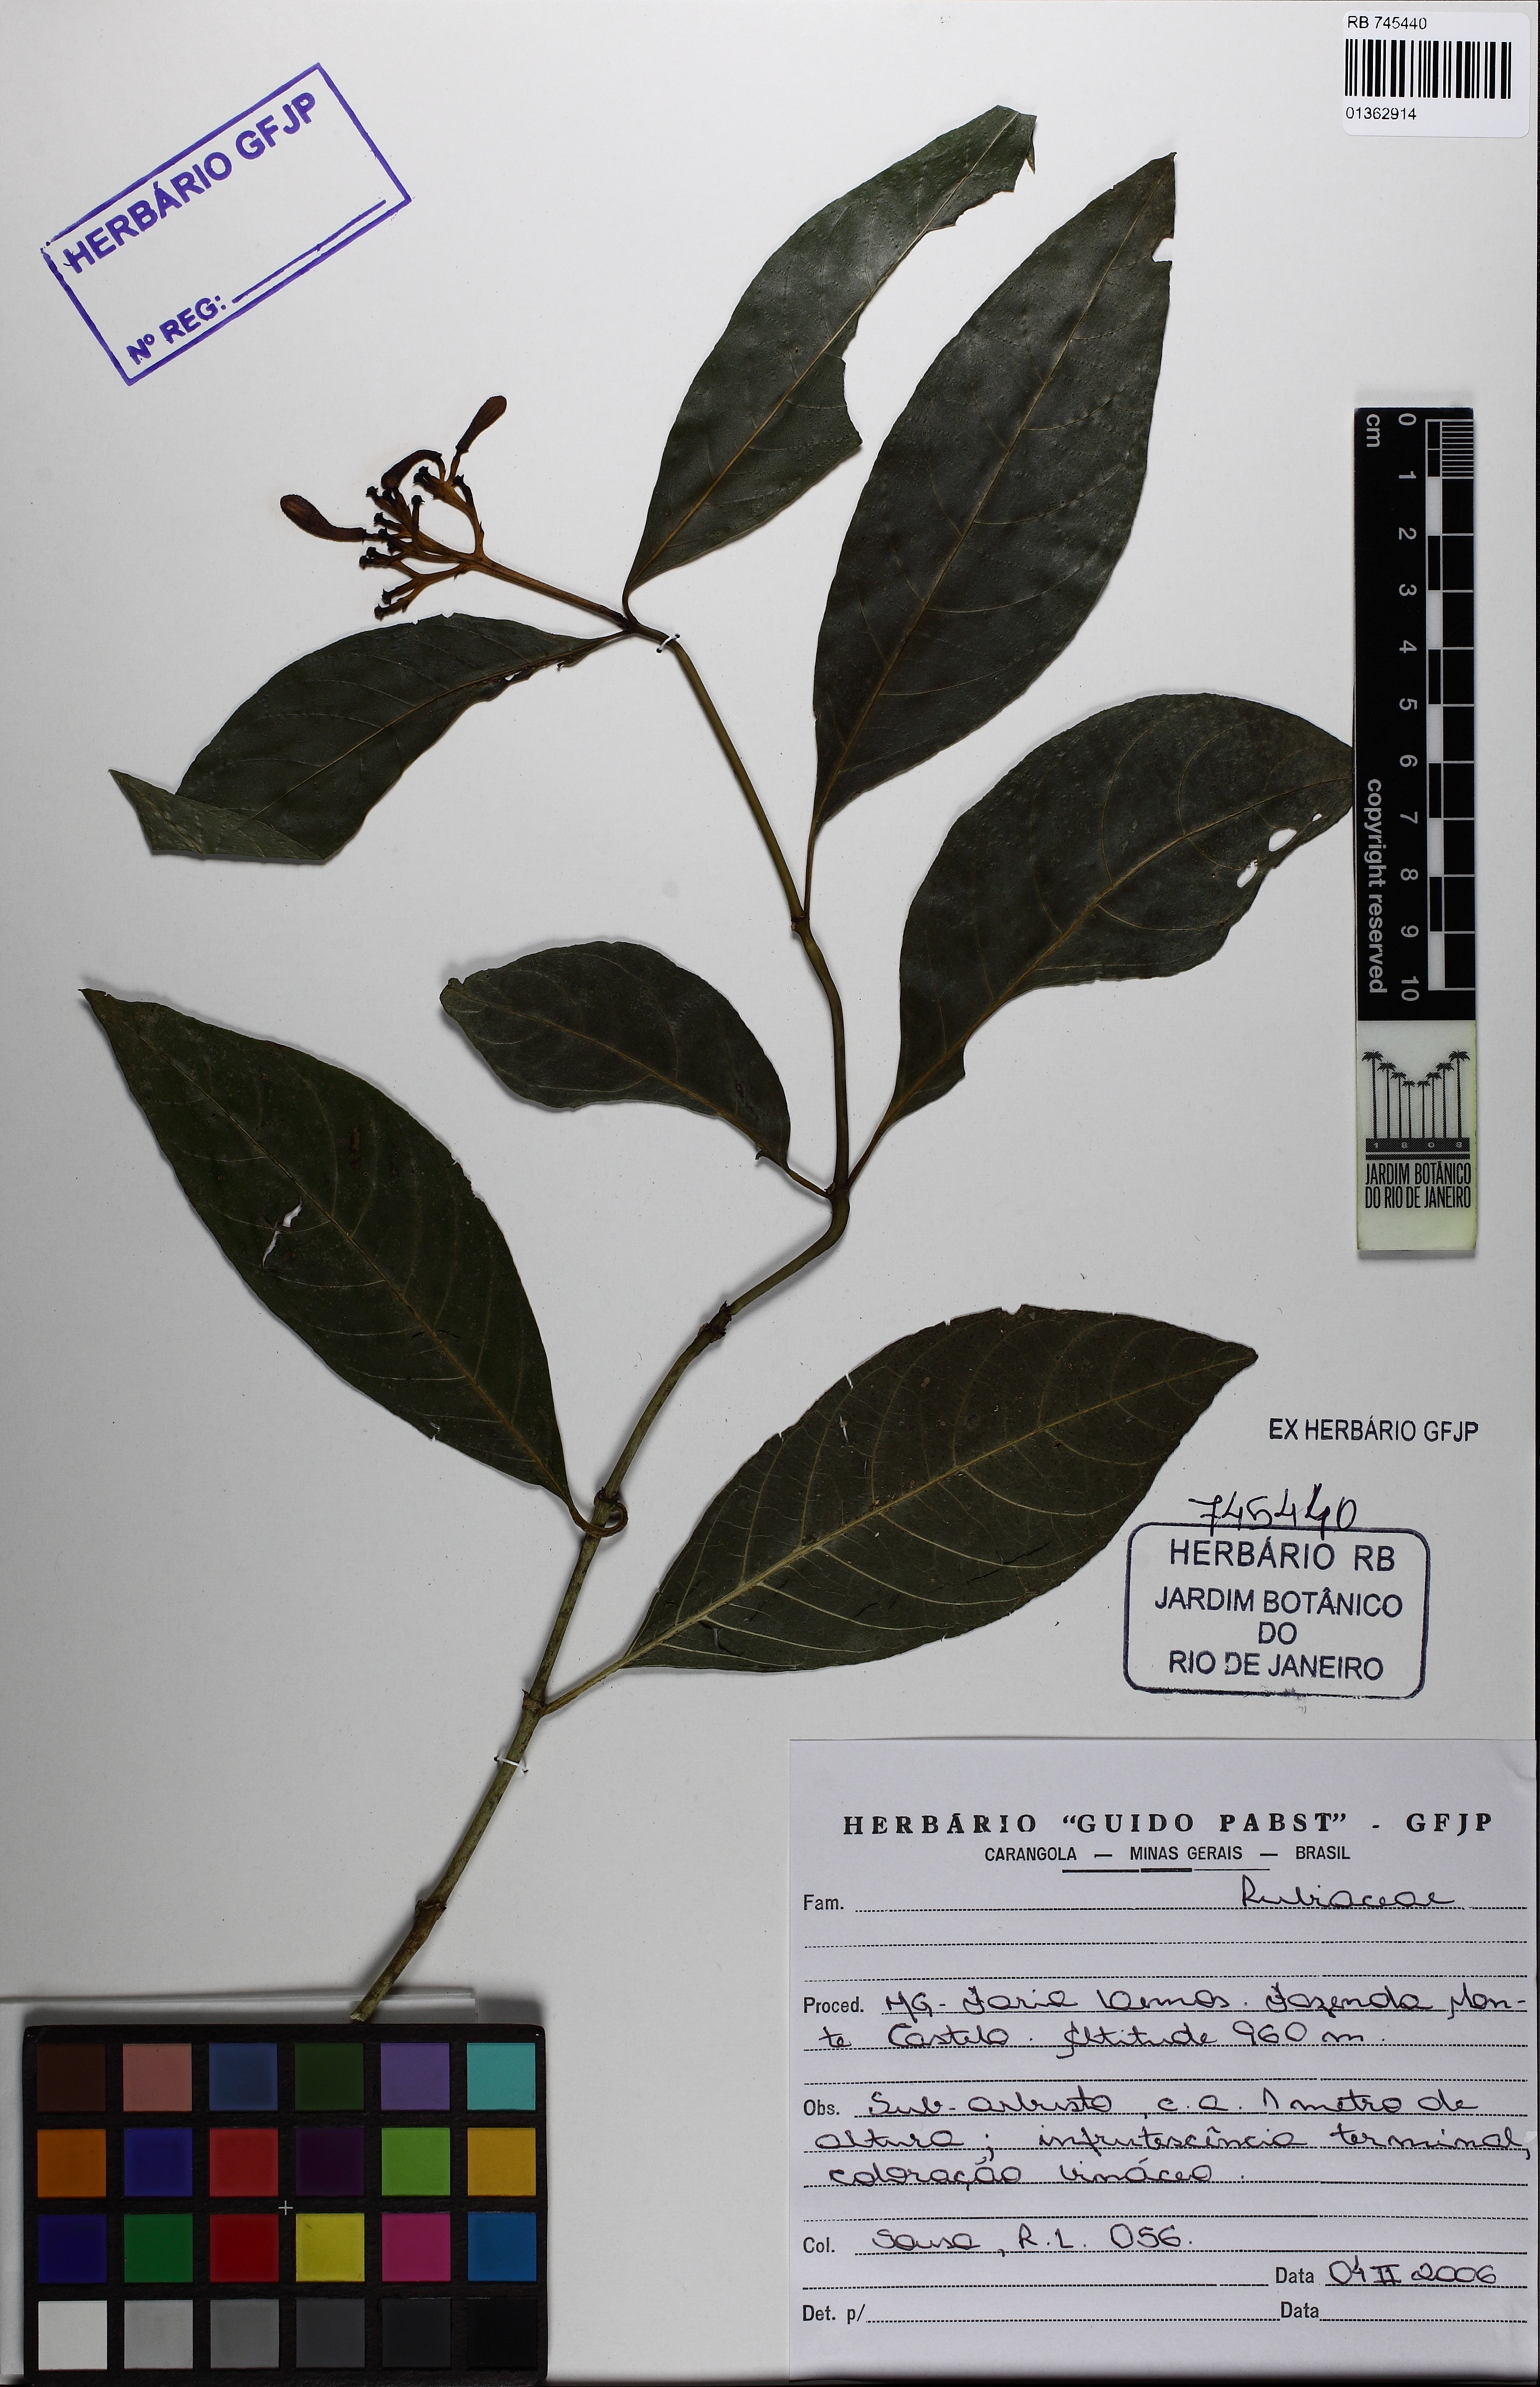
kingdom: Plantae
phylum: Tracheophyta
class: Magnoliopsida
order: Gentianales
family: Rubiaceae
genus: Palicourea
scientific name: Palicourea marcgravii
